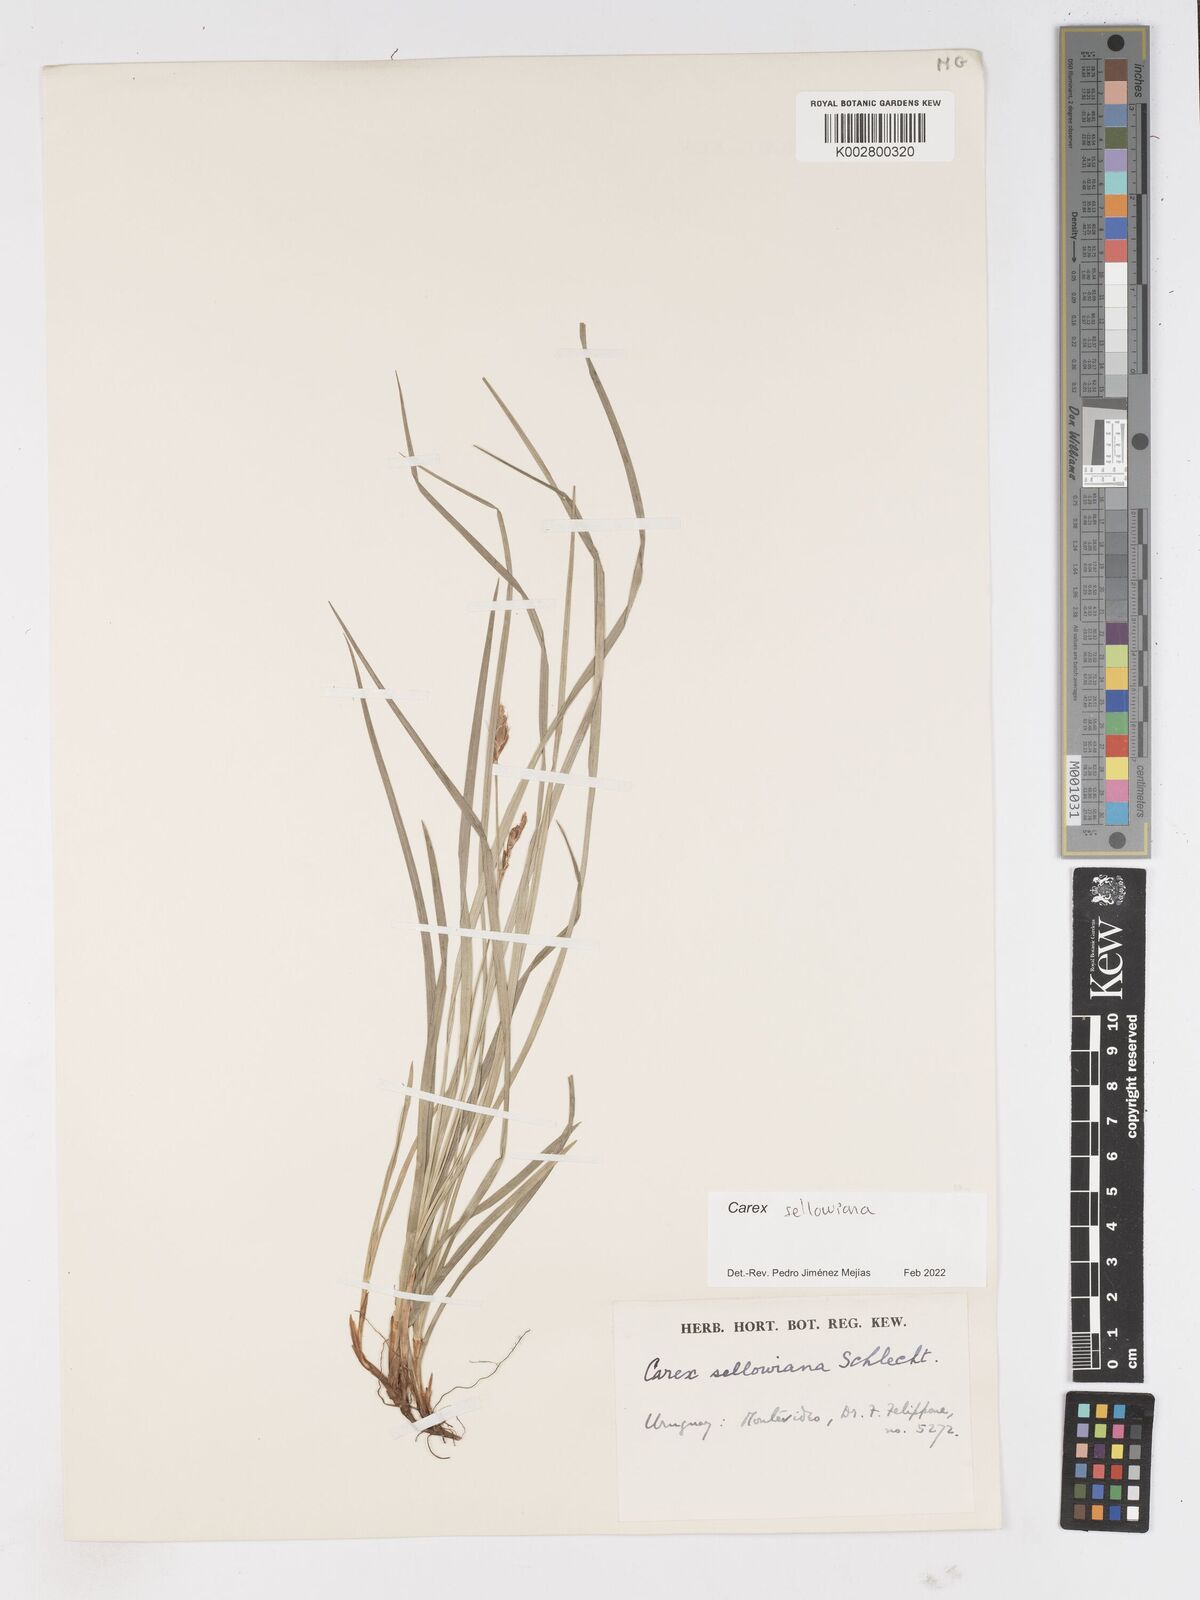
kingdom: Plantae
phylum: Tracheophyta
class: Liliopsida
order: Poales
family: Cyperaceae
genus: Carex
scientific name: Carex sellowiana
